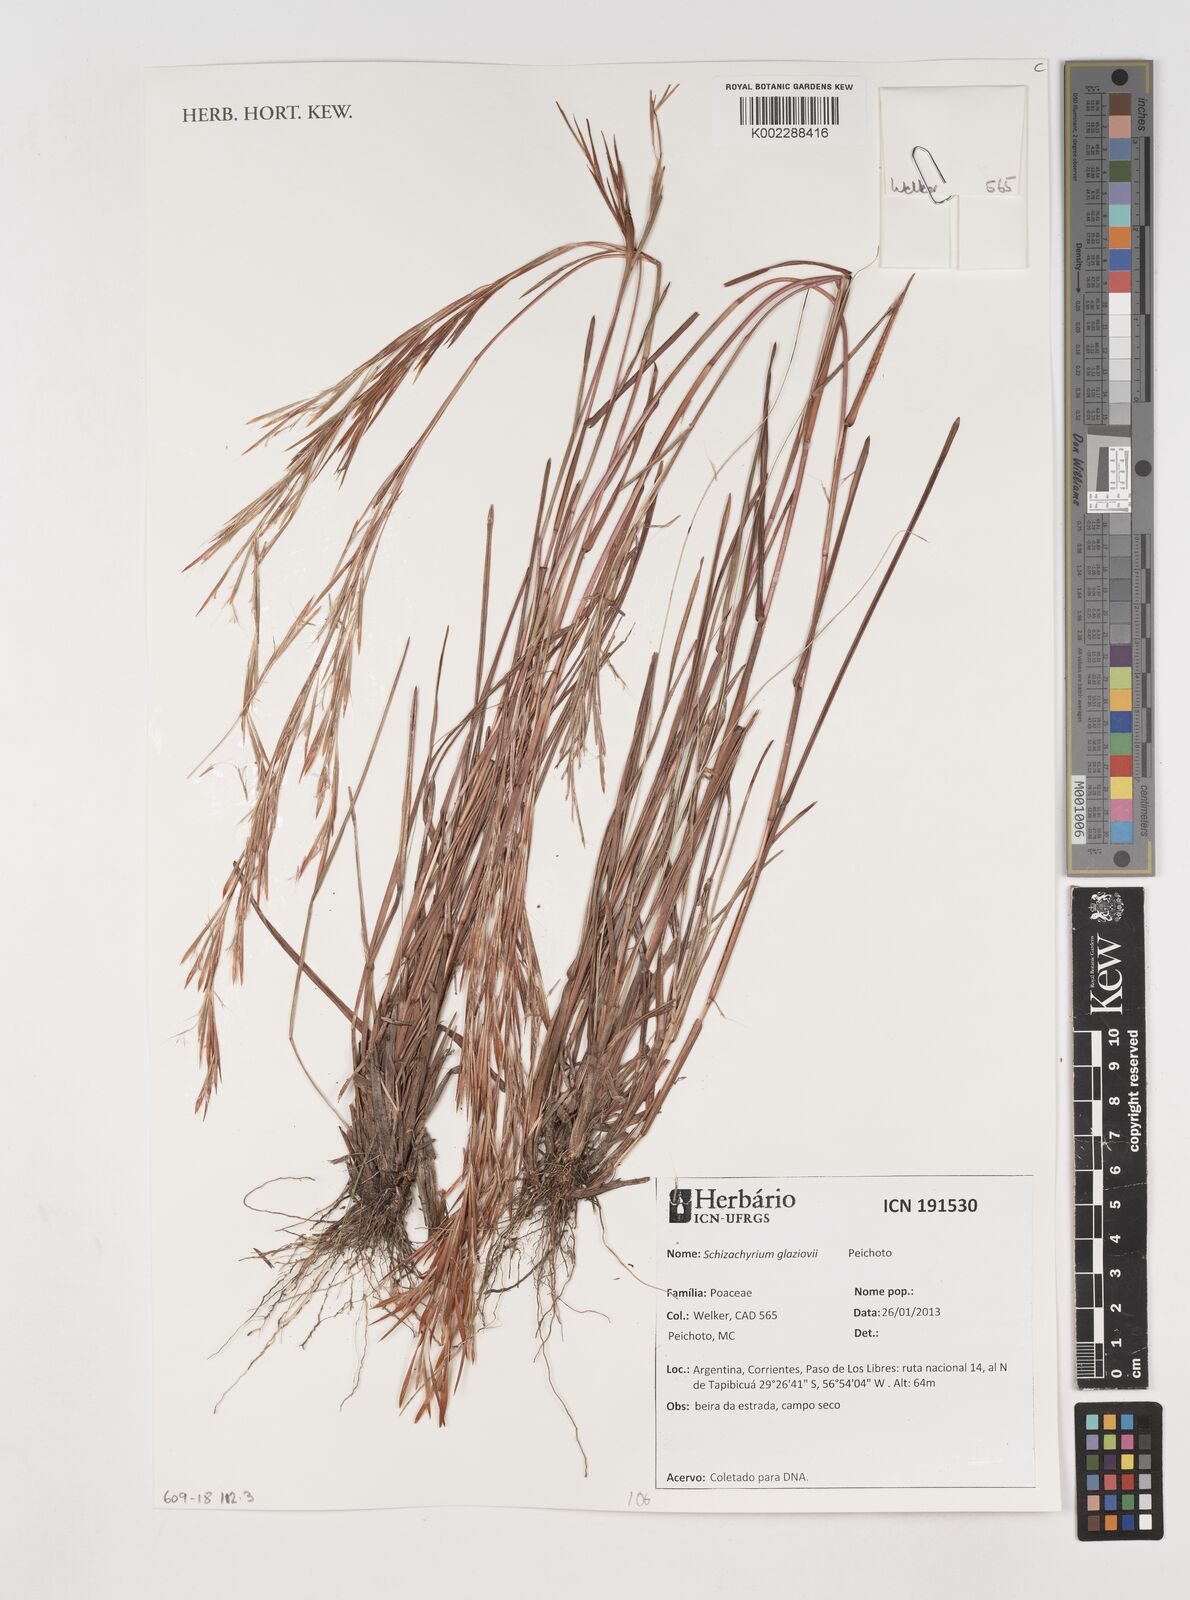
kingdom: Plantae
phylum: Tracheophyta
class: Liliopsida
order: Poales
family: Poaceae
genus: Schizachyrium
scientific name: Schizachyrium glaziovii
